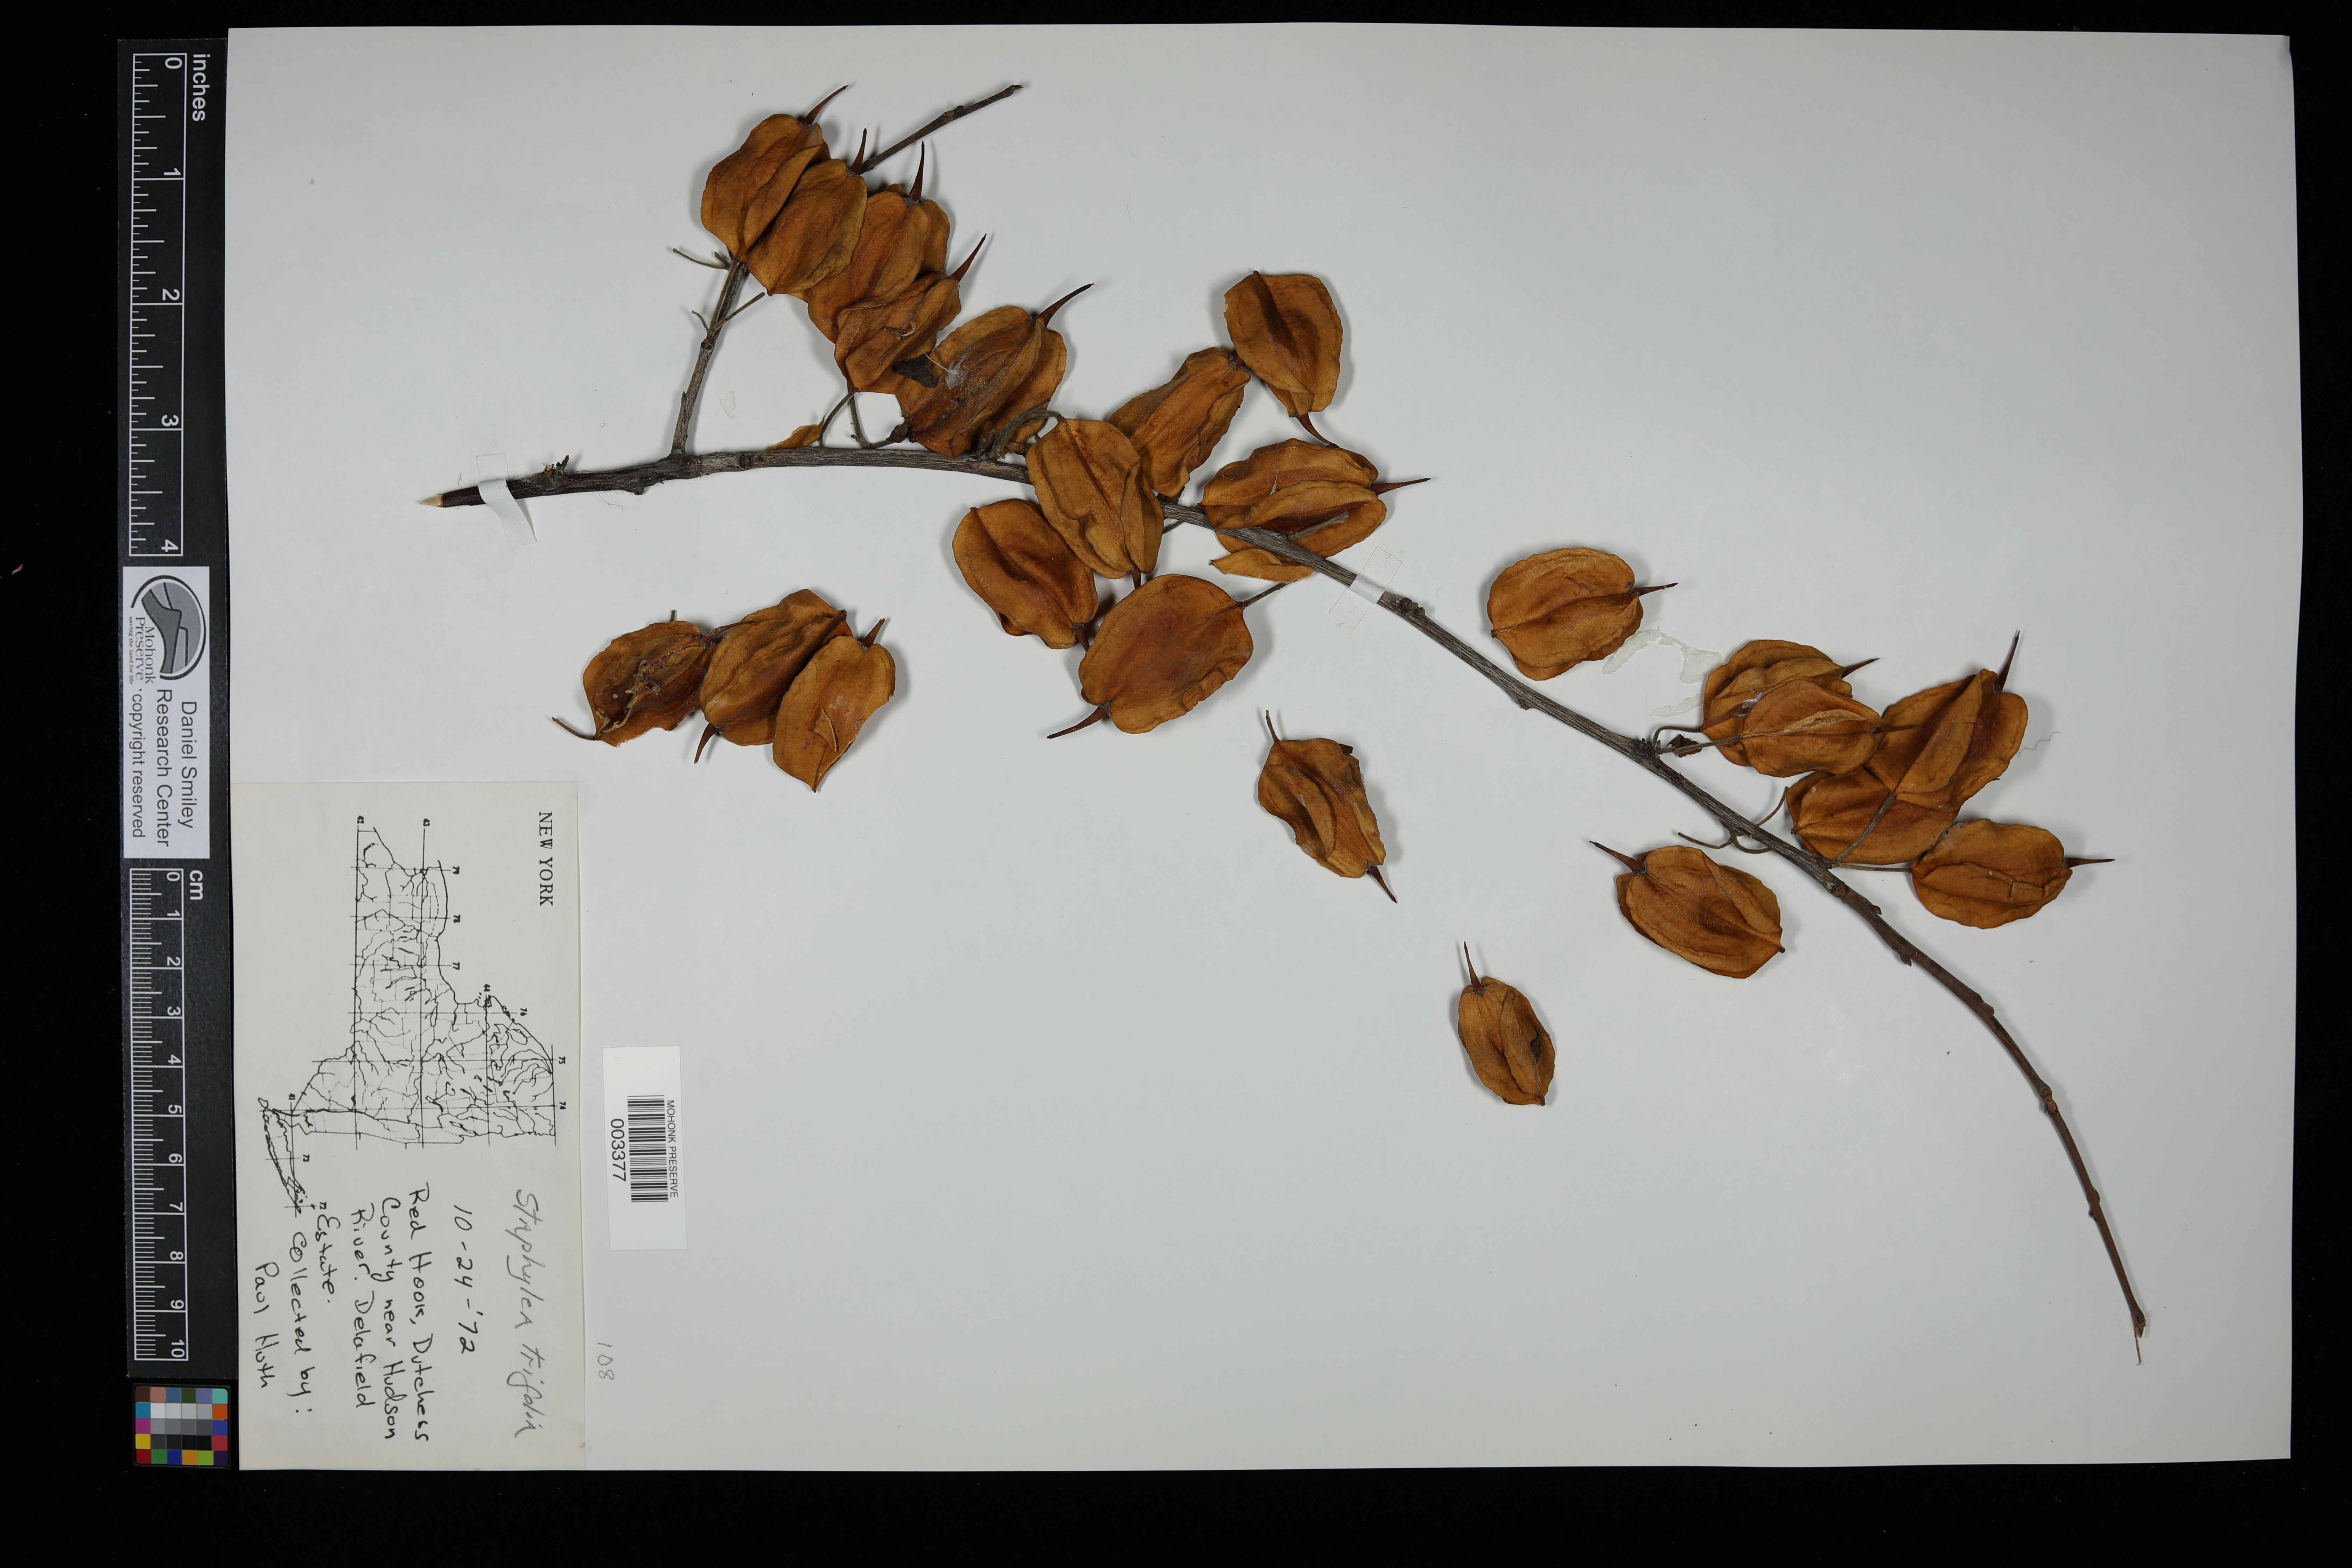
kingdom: Plantae
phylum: Tracheophyta
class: Magnoliopsida
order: Crossosomatales
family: Staphyleaceae
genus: Staphylea
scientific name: Staphylea trifolia
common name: American bladdernut
